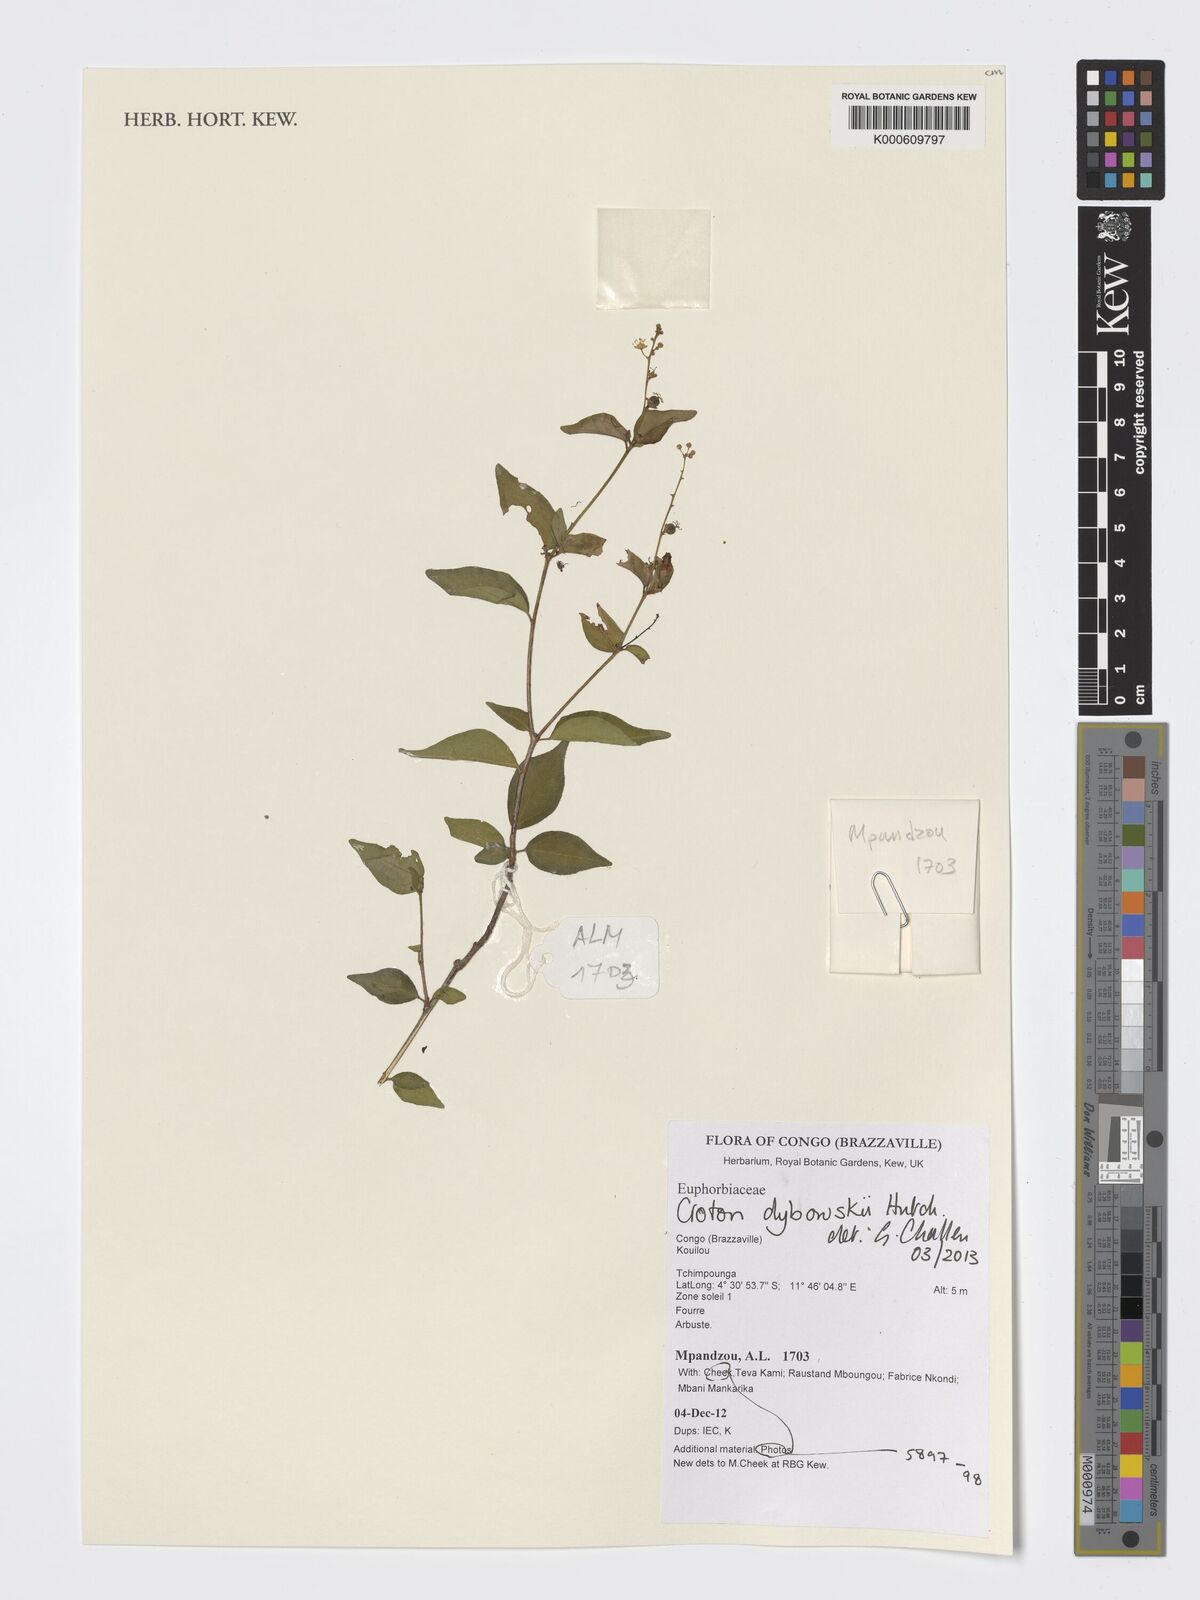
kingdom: Plantae
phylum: Tracheophyta
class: Magnoliopsida
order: Malpighiales
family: Euphorbiaceae
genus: Croton
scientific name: Croton dybowskii
